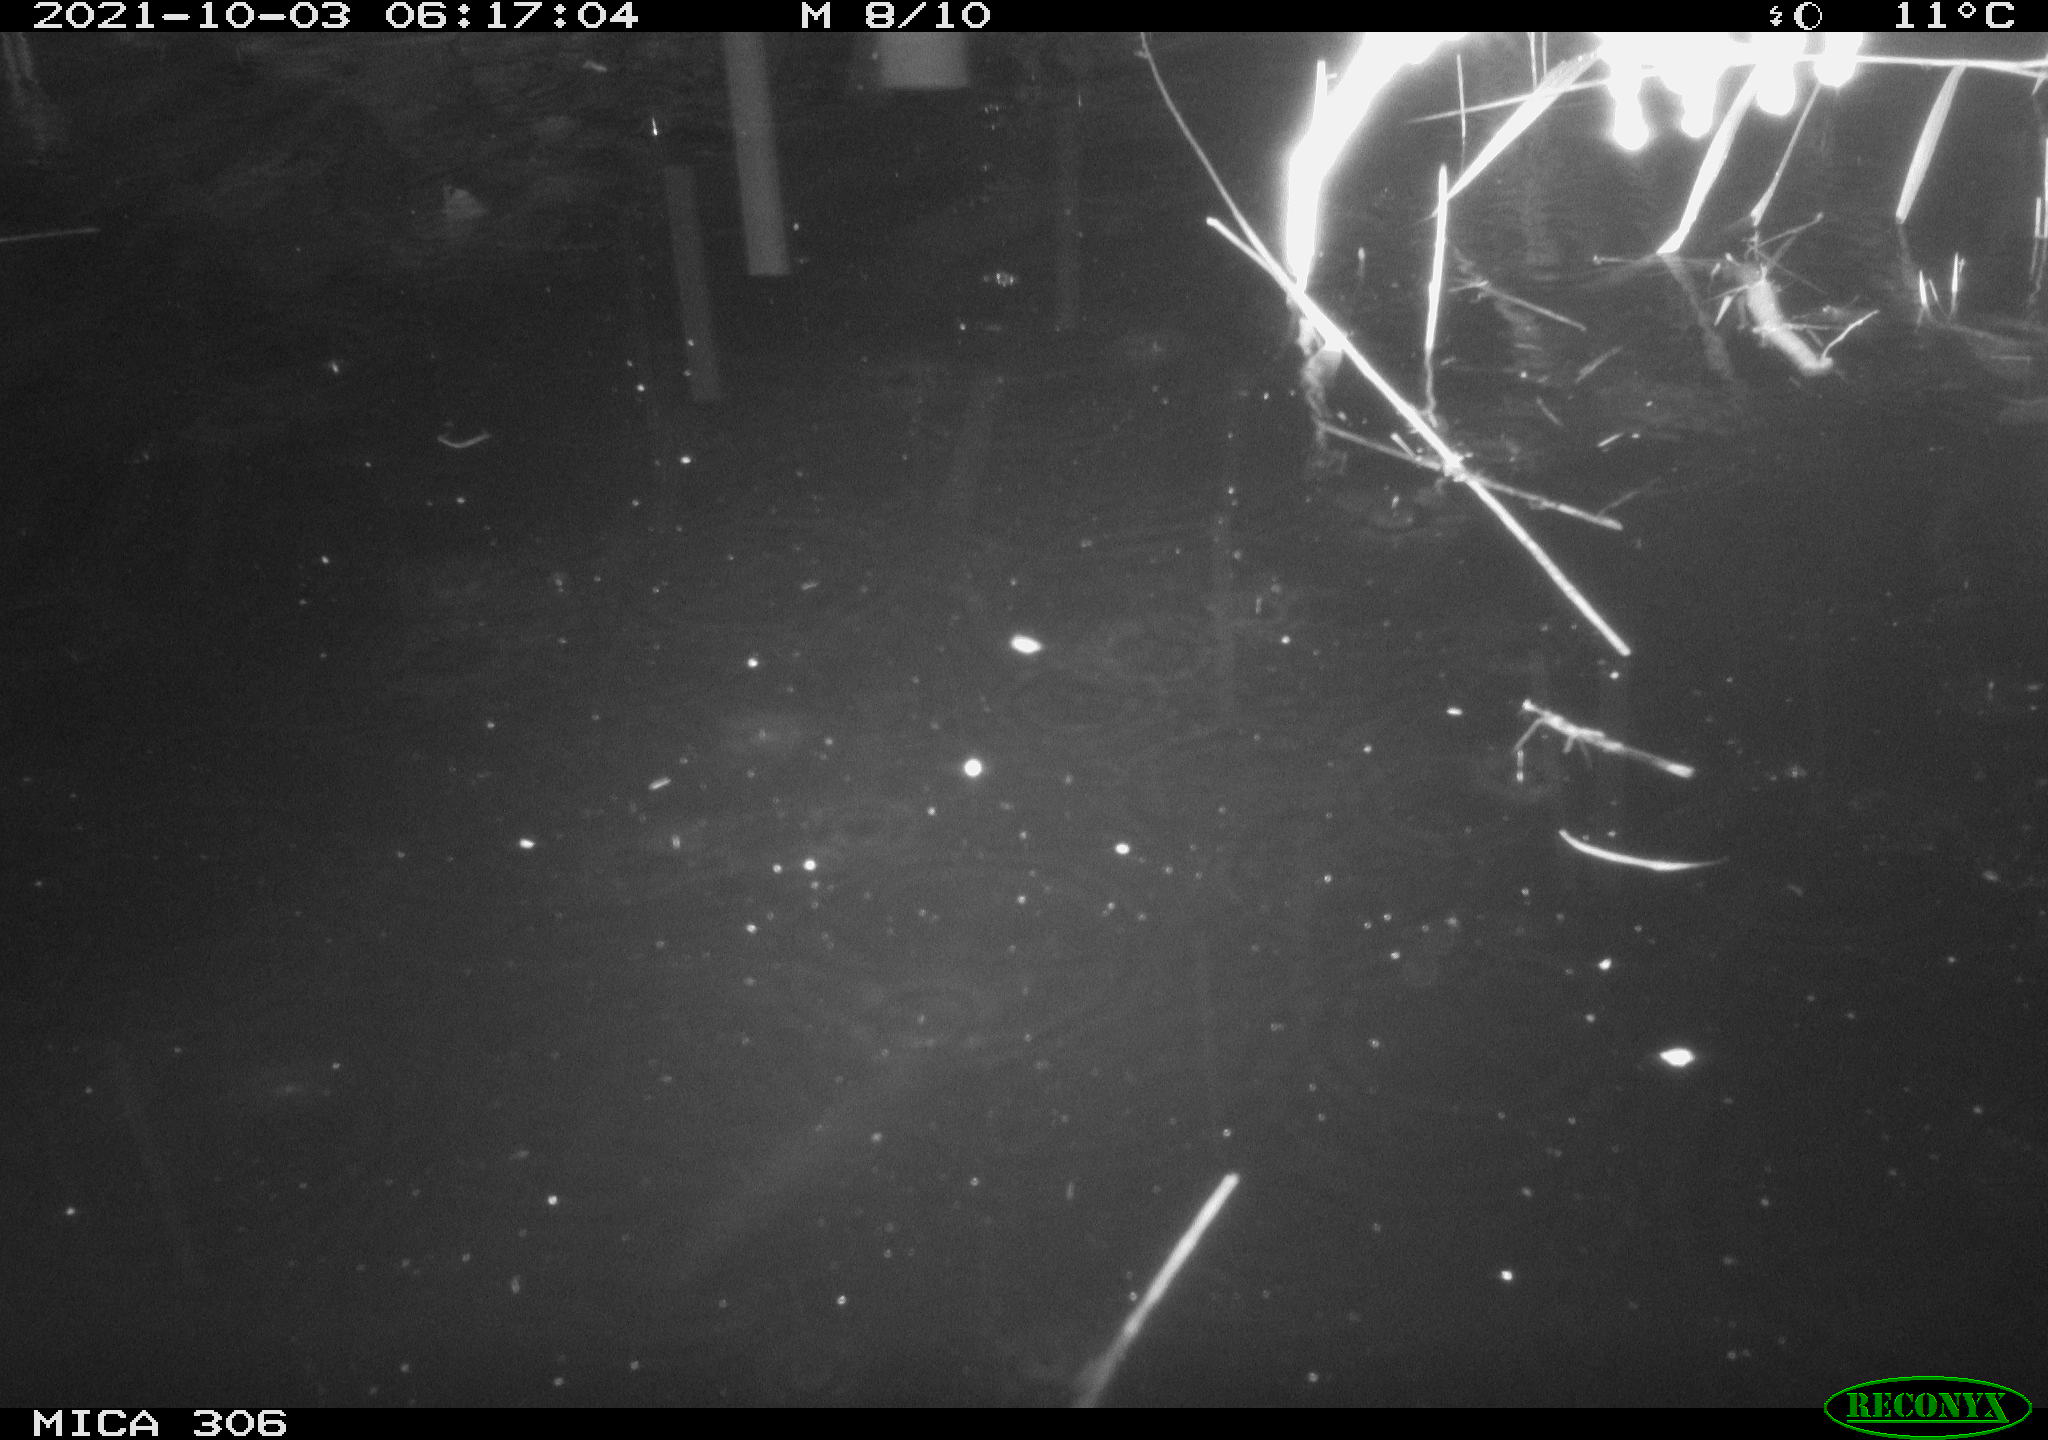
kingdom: Animalia
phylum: Chordata
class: Mammalia
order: Rodentia
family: Cricetidae
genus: Ondatra
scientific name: Ondatra zibethicus
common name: Muskrat
